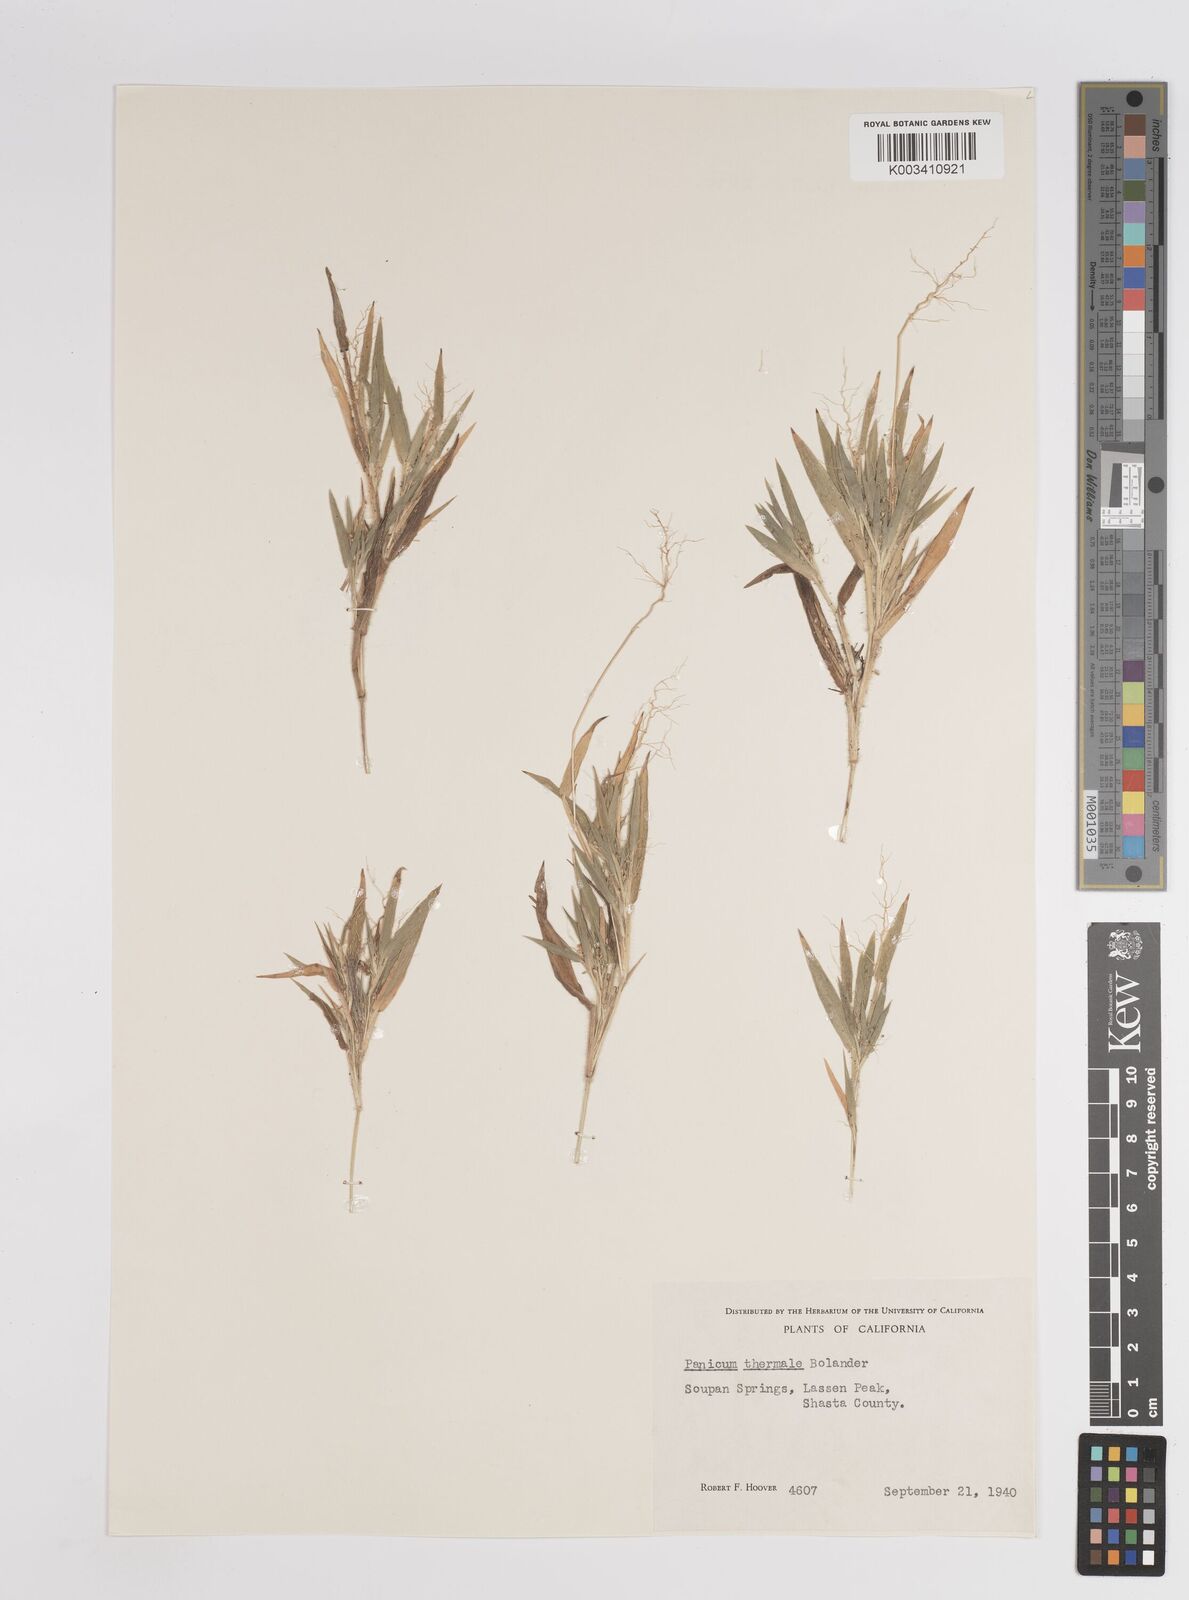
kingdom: Plantae
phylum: Tracheophyta
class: Liliopsida
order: Poales
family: Poaceae
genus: Dichanthelium
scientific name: Dichanthelium thermale
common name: Geyser panicgrass
